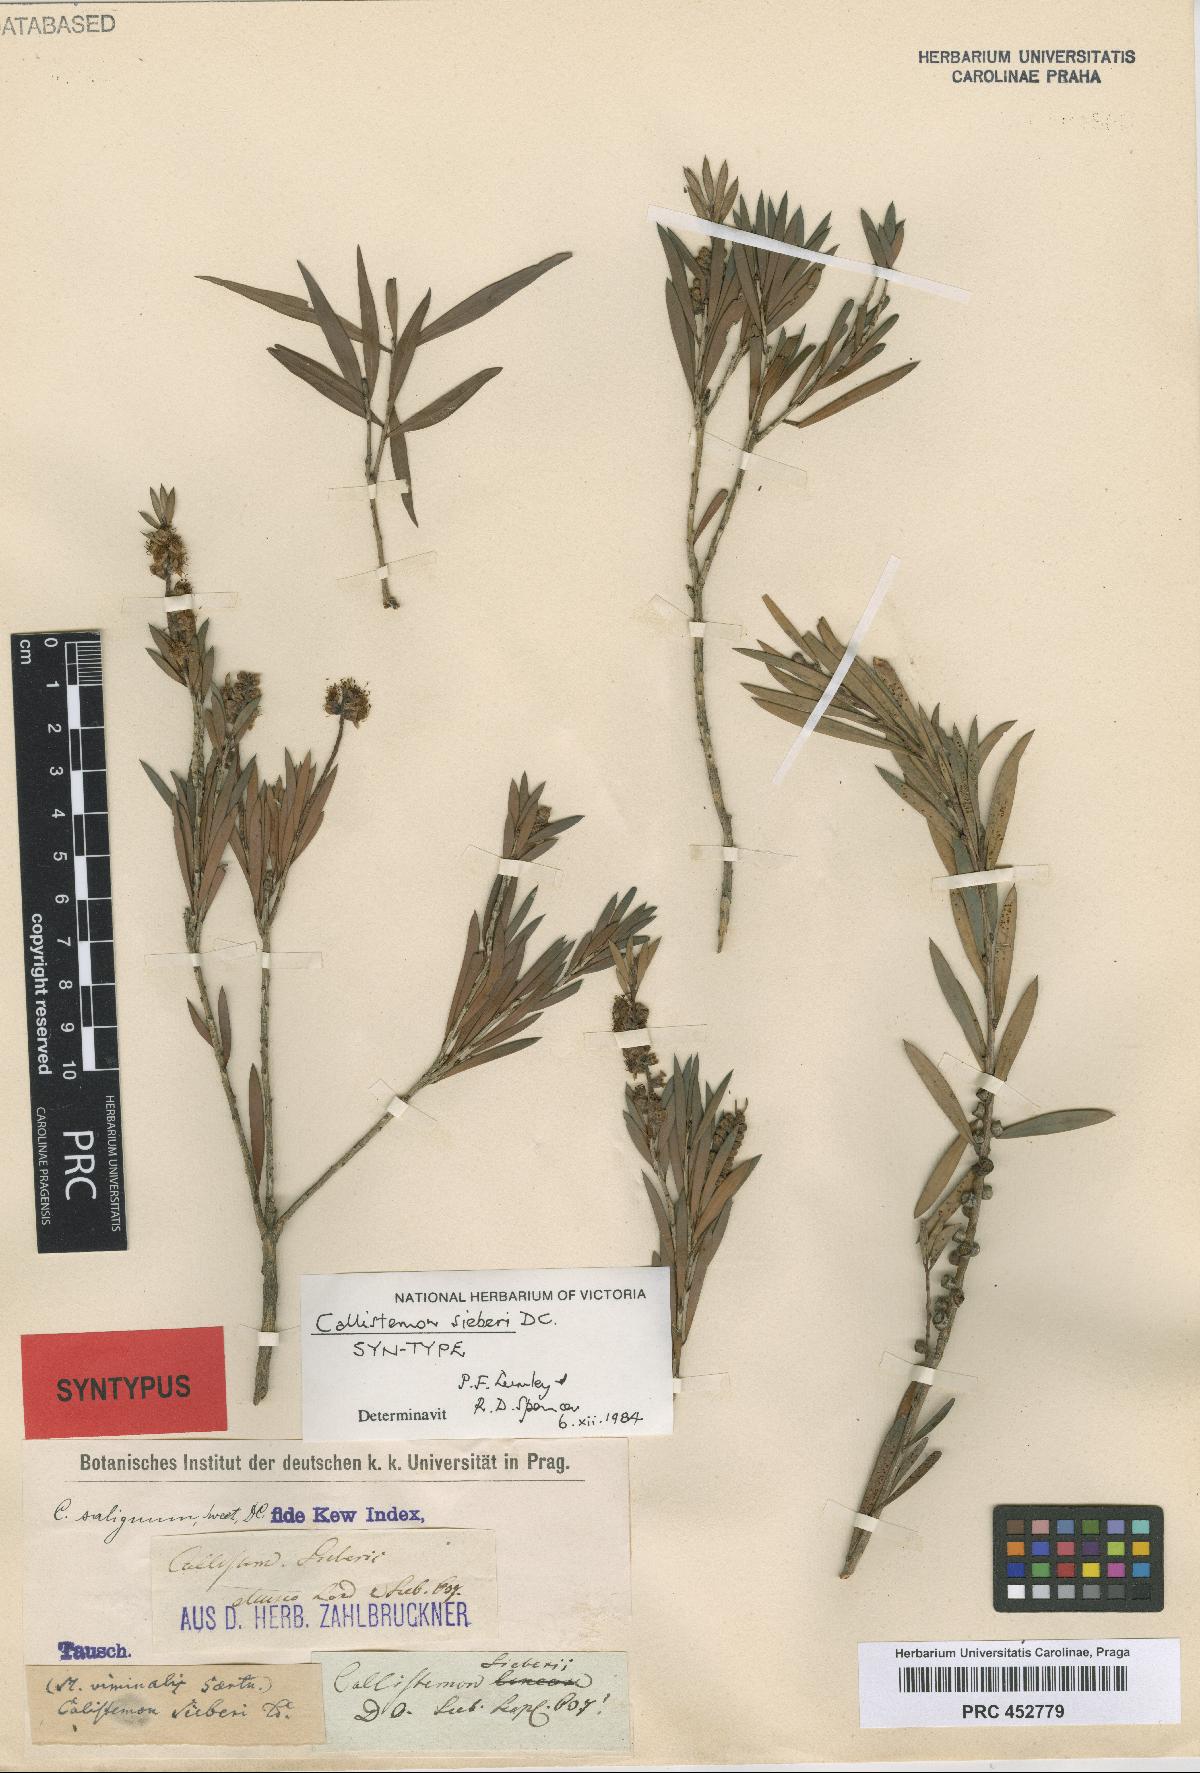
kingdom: Plantae
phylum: Tracheophyta
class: Magnoliopsida
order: Myrtales
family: Myrtaceae
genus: Callistemon
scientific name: Callistemon paludosus
